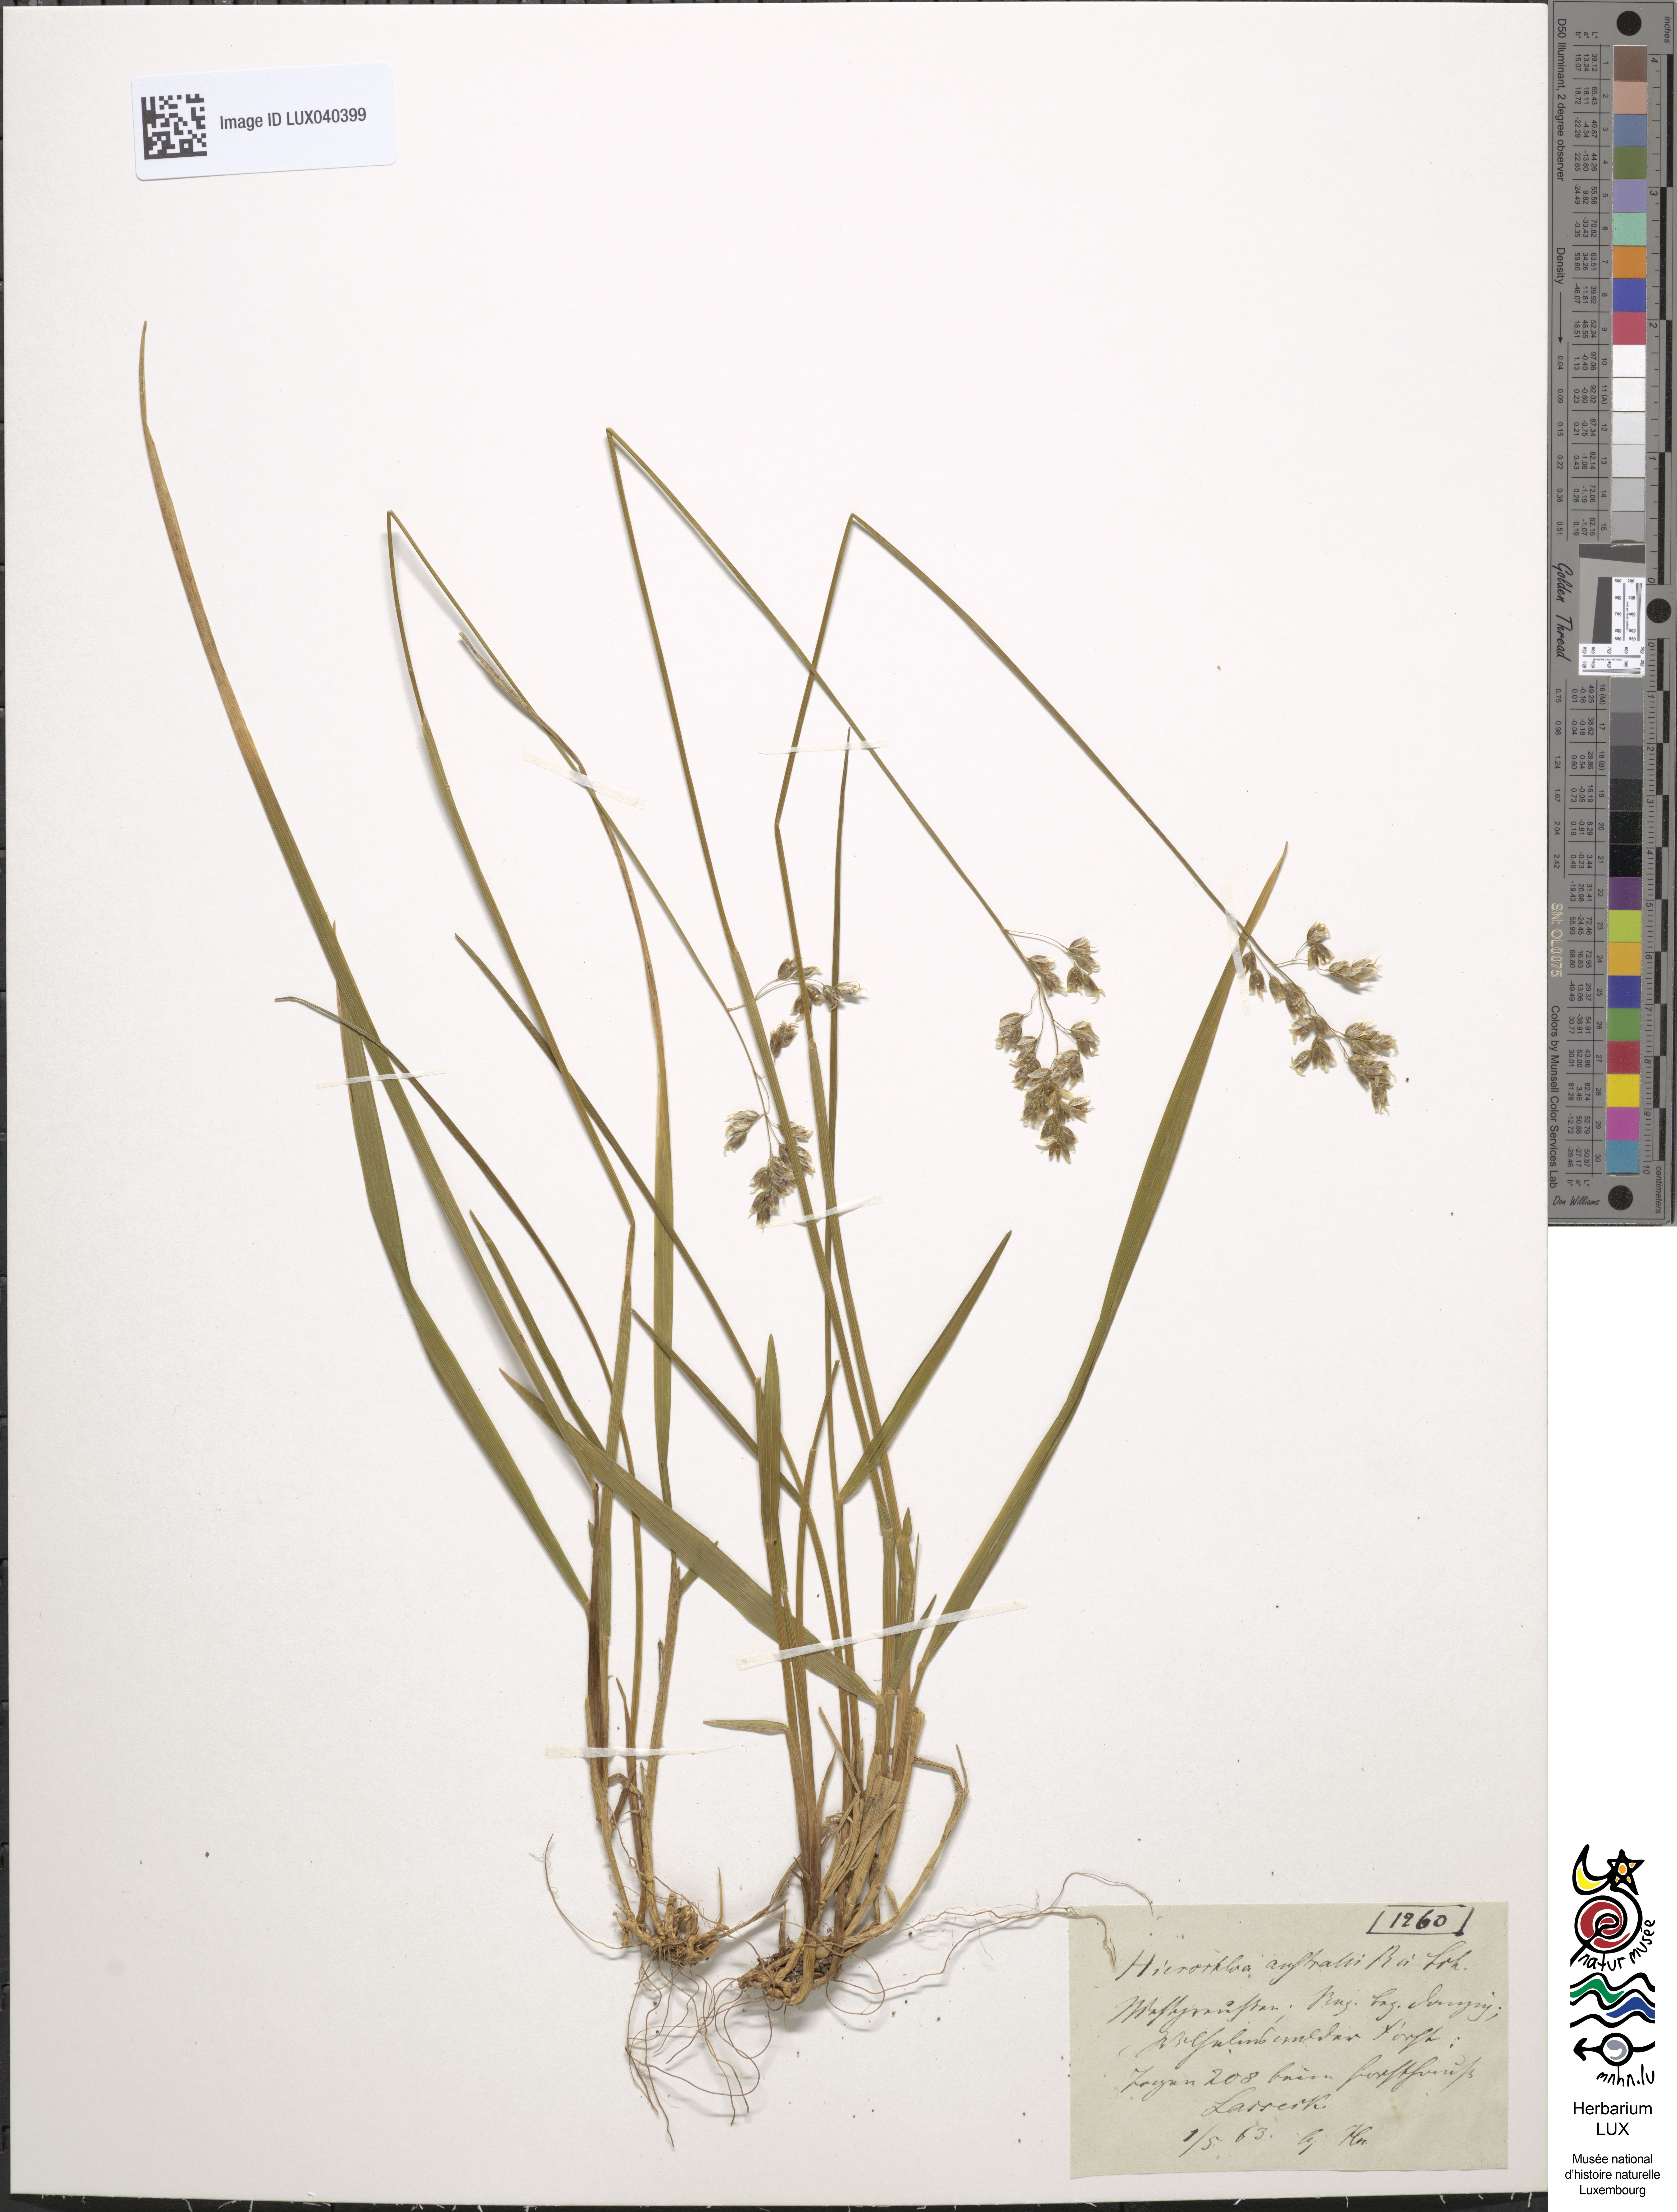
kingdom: Plantae
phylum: Tracheophyta
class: Liliopsida
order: Poales
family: Poaceae
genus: Anthoxanthum
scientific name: Anthoxanthum australe
